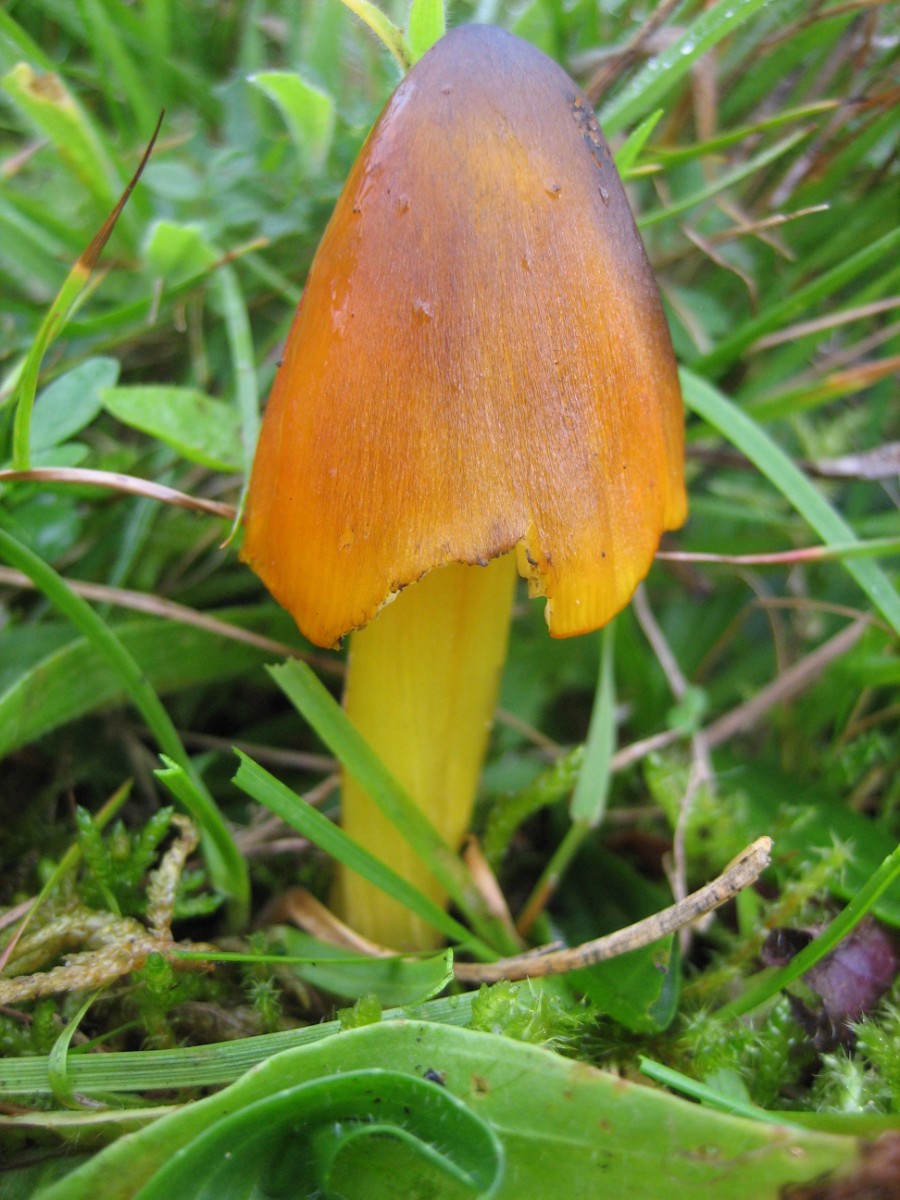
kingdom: Fungi
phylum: Basidiomycota
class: Agaricomycetes
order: Agaricales
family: Hygrophoraceae
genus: Hygrocybe
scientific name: Hygrocybe conica
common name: kegle-vokshat
